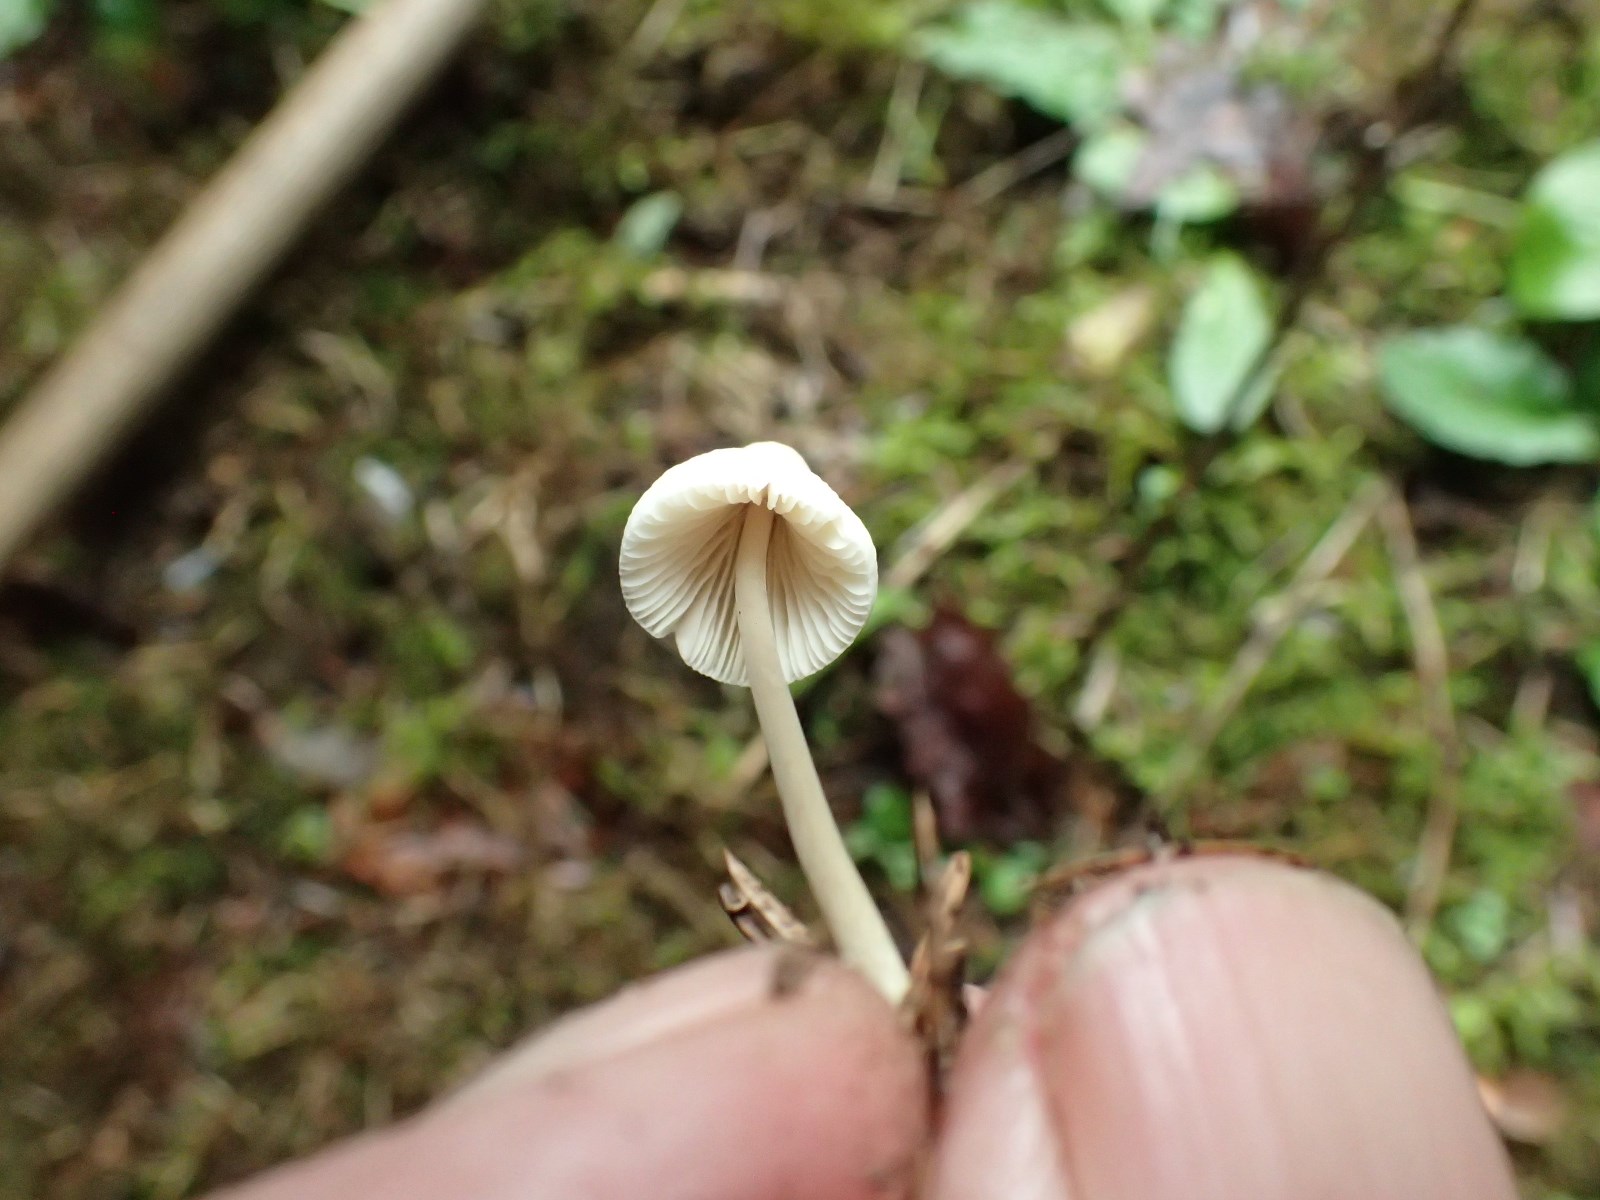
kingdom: Fungi
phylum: Basidiomycota
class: Agaricomycetes
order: Agaricales
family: Mycenaceae
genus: Mycena
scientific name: Mycena
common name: huesvamp
